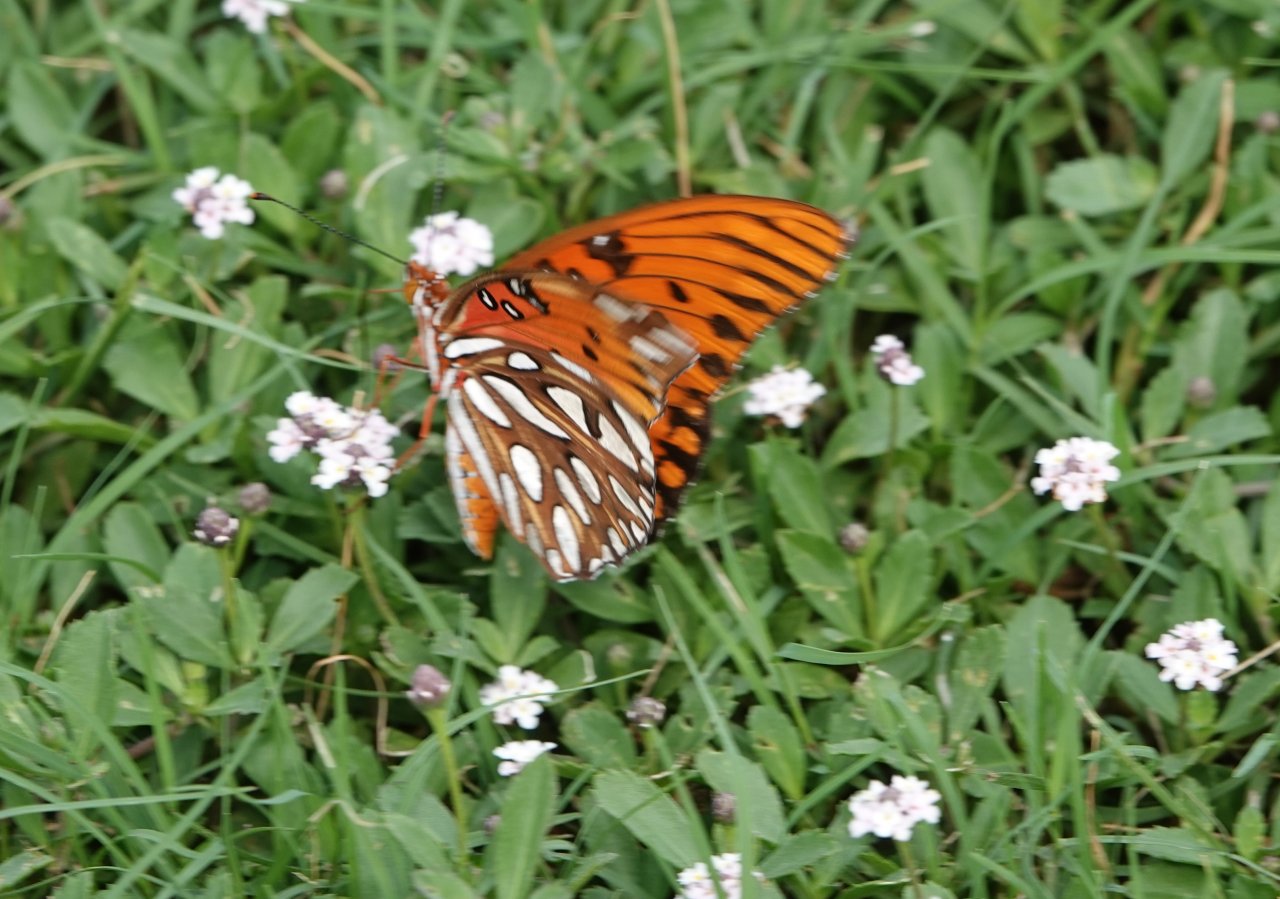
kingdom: Animalia
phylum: Arthropoda
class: Insecta
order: Lepidoptera
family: Nymphalidae
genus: Dione
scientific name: Dione vanillae
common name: Gulf Fritillary
